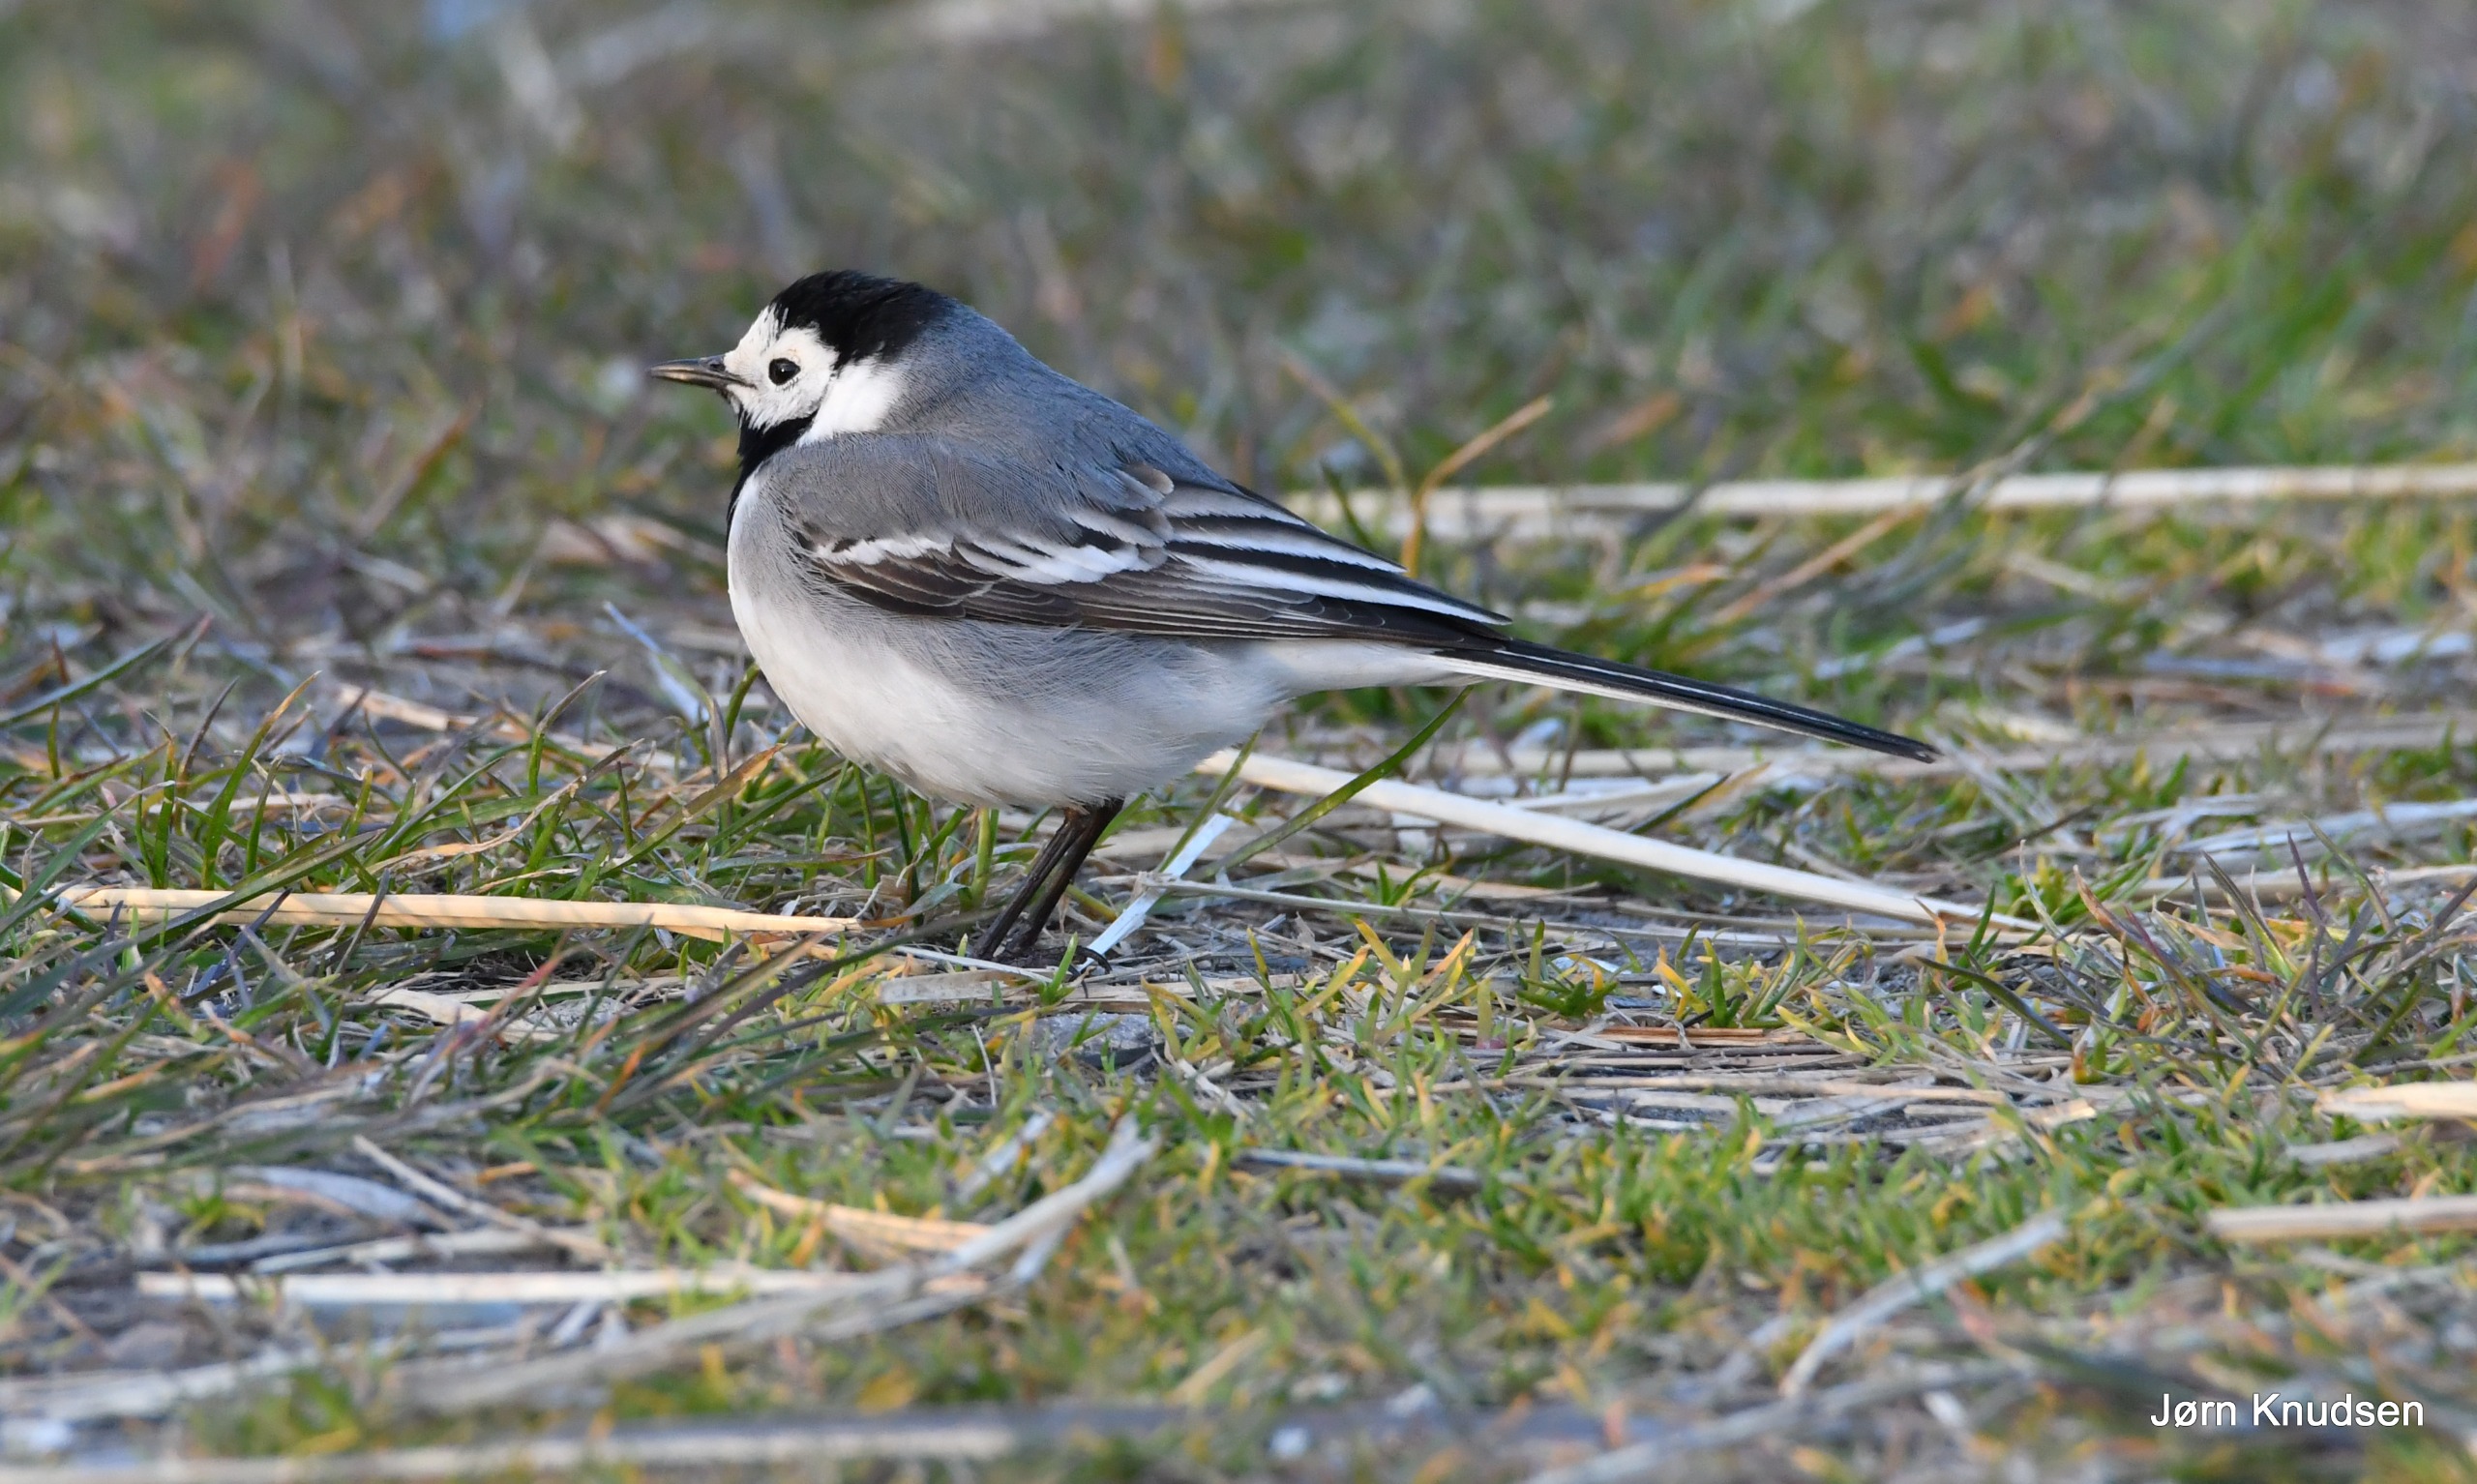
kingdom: Animalia
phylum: Chordata
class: Aves
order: Passeriformes
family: Motacillidae
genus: Motacilla
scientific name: Motacilla alba
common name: Hvid vipstjert
